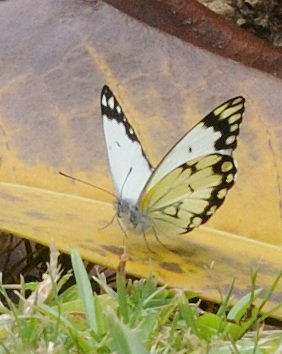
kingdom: Animalia
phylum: Arthropoda
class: Insecta
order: Lepidoptera
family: Pieridae
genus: Belenois
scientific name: Belenois creona
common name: African Caper
